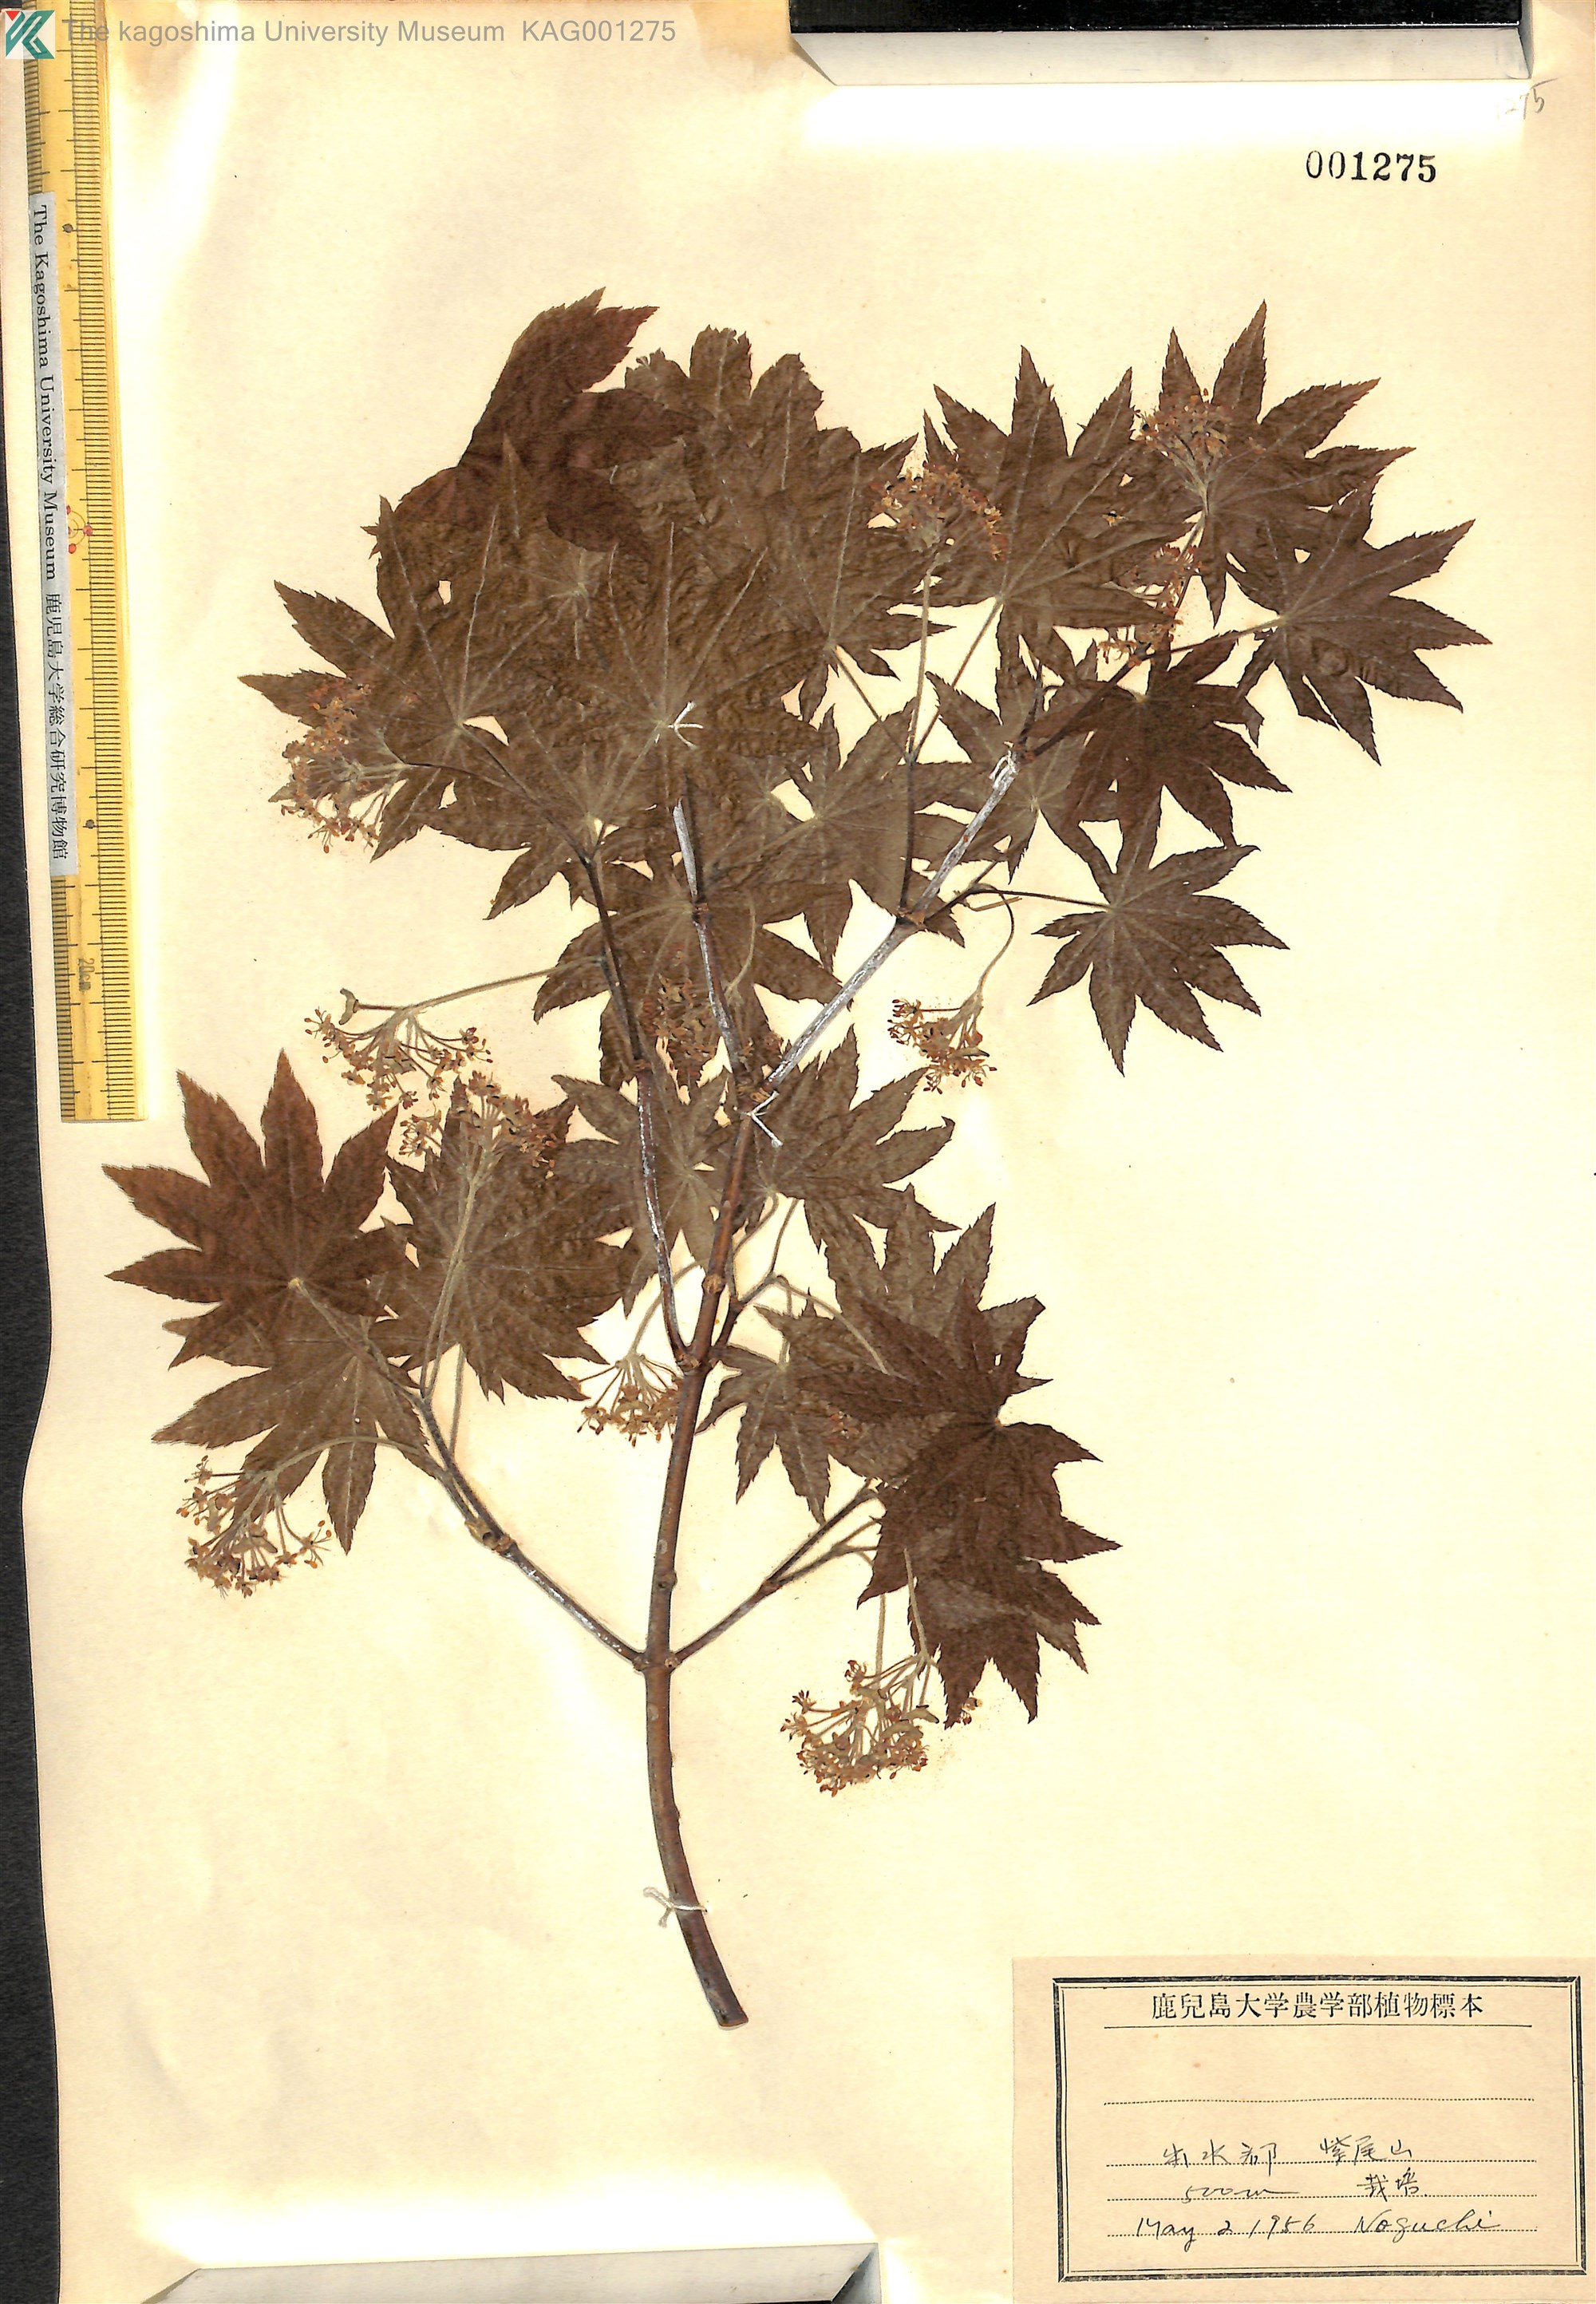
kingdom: Plantae
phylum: Tracheophyta
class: Magnoliopsida
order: Sapindales
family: Sapindaceae
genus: Acer
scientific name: Acer sieboldianum
